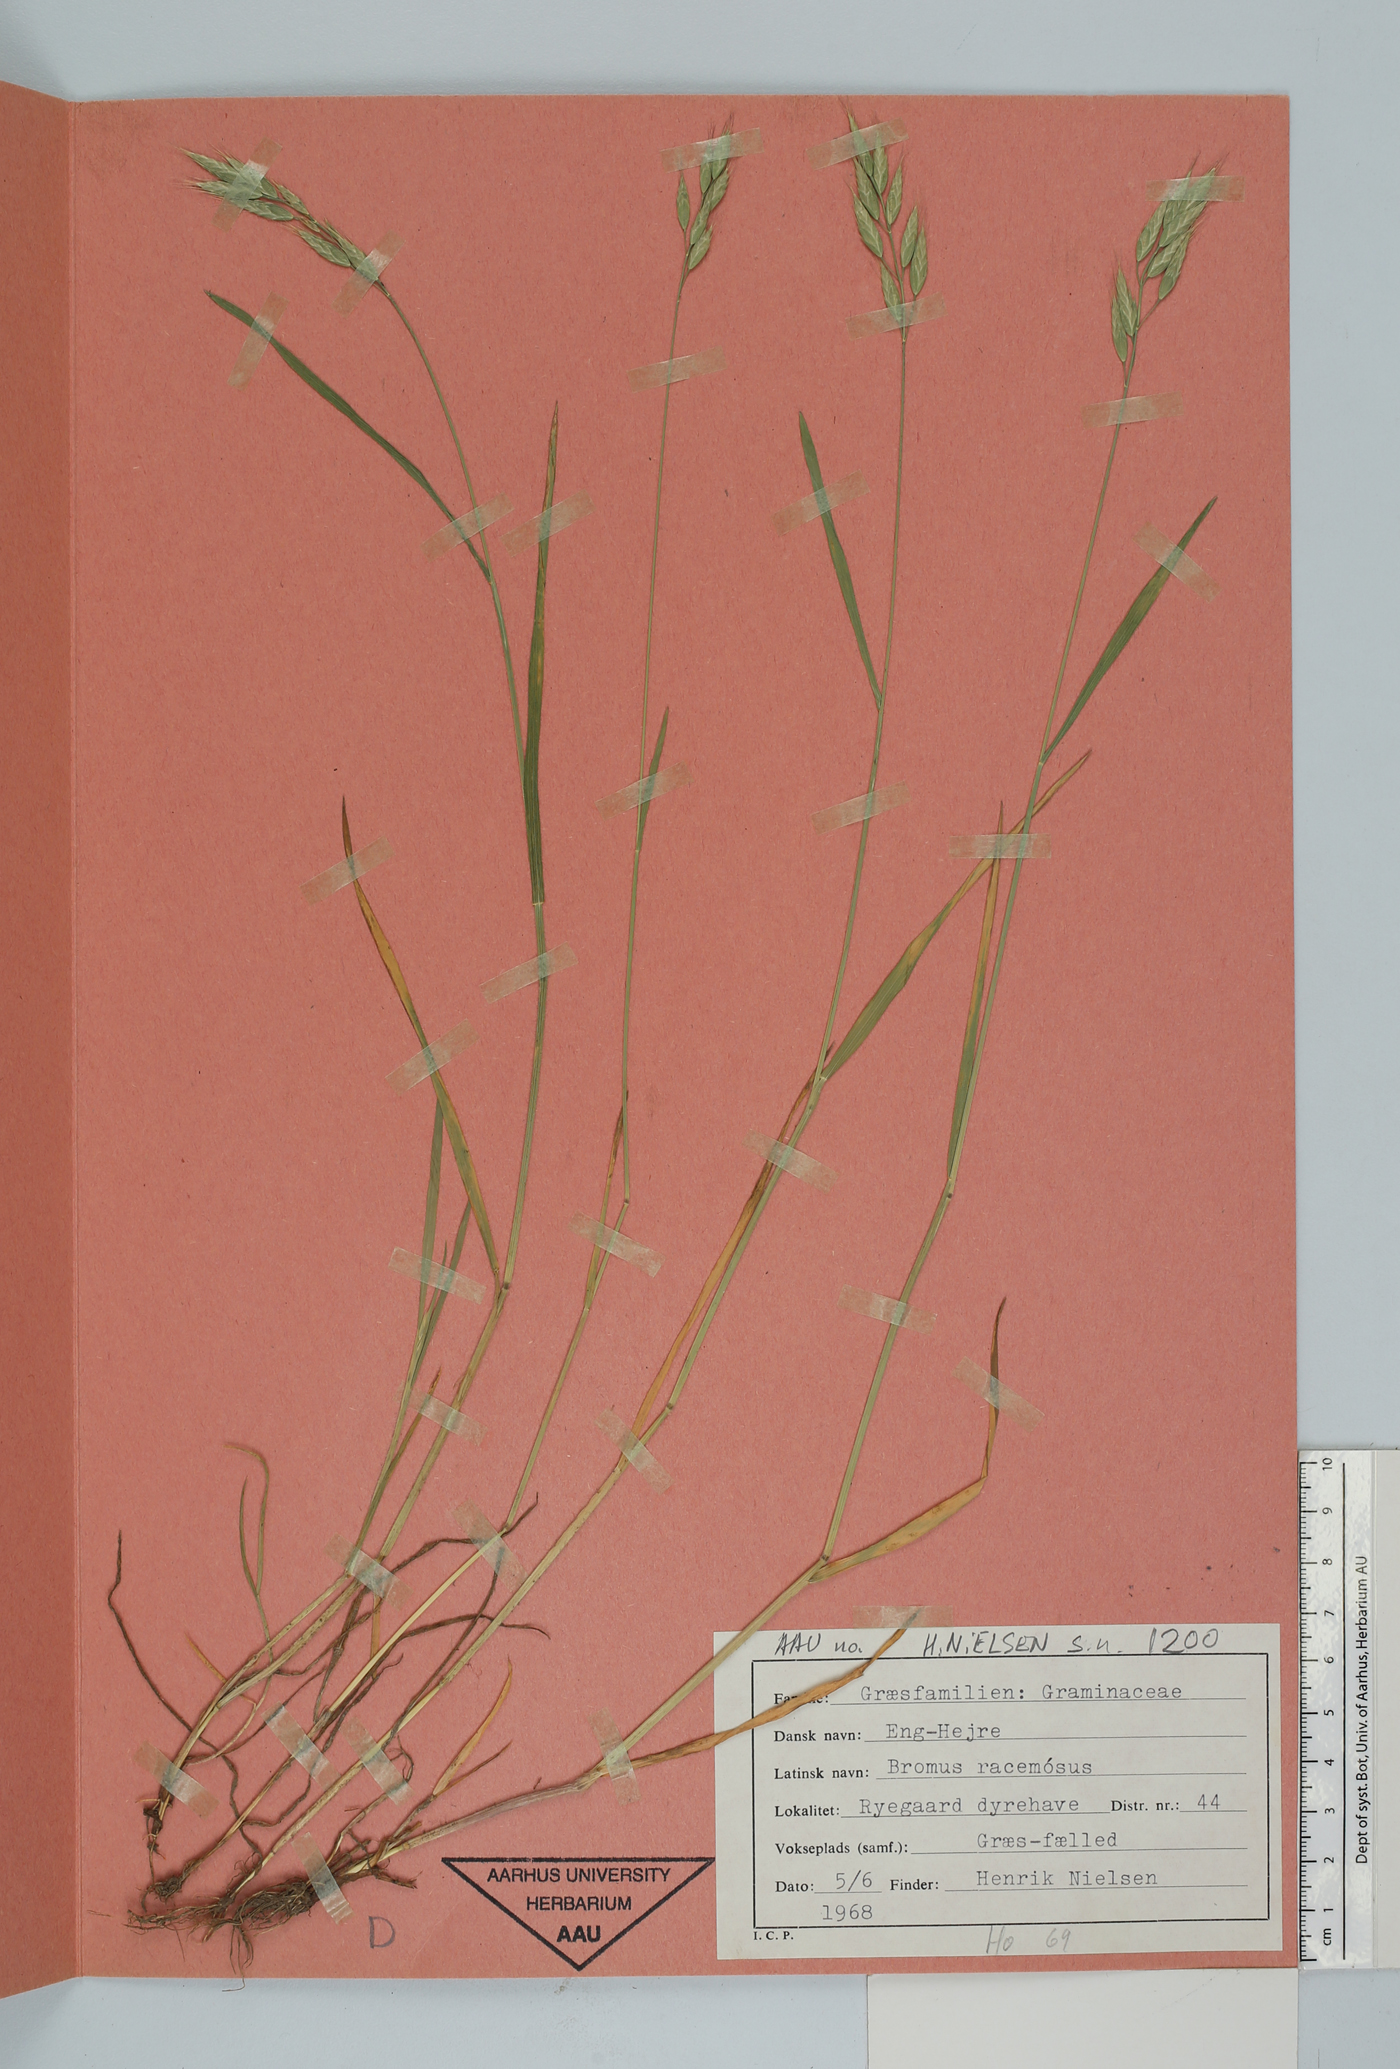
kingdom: Plantae
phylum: Tracheophyta
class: Liliopsida
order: Poales
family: Poaceae
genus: Bromus
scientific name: Bromus racemosus
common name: Bald brome
